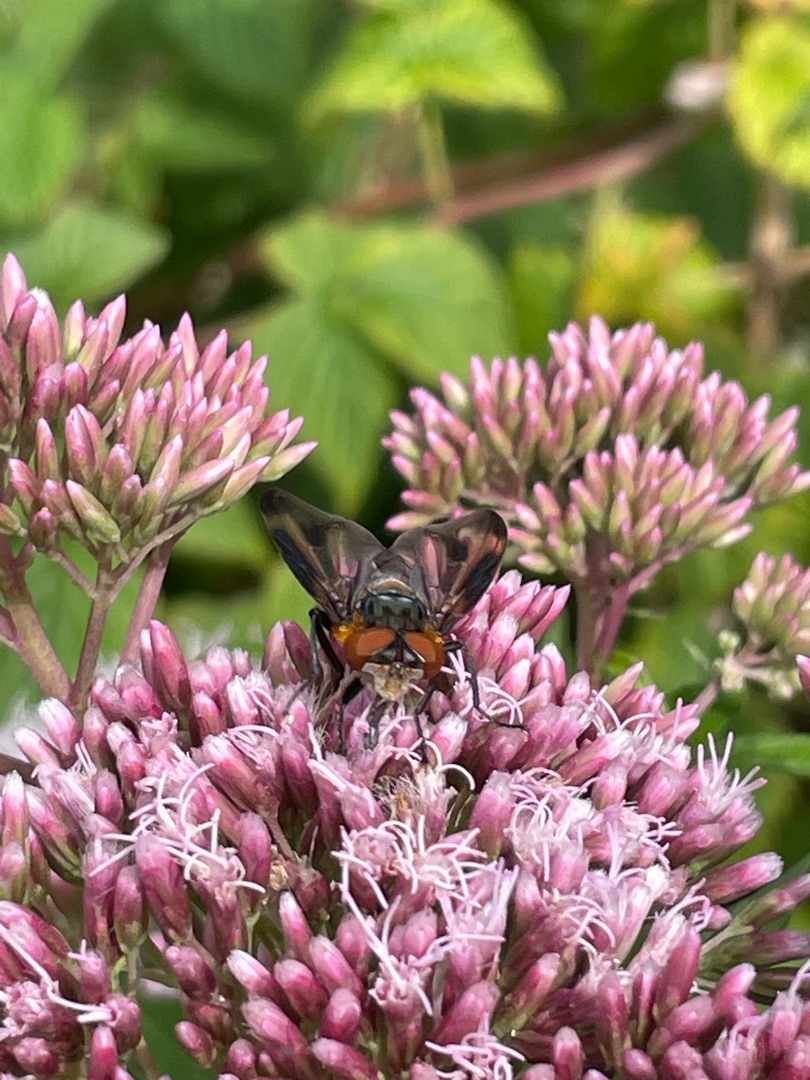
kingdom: Animalia
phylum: Arthropoda
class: Insecta
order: Diptera
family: Tachinidae
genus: Phasia
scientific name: Phasia hemiptera
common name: Blåvinget pragtsnylteflue
